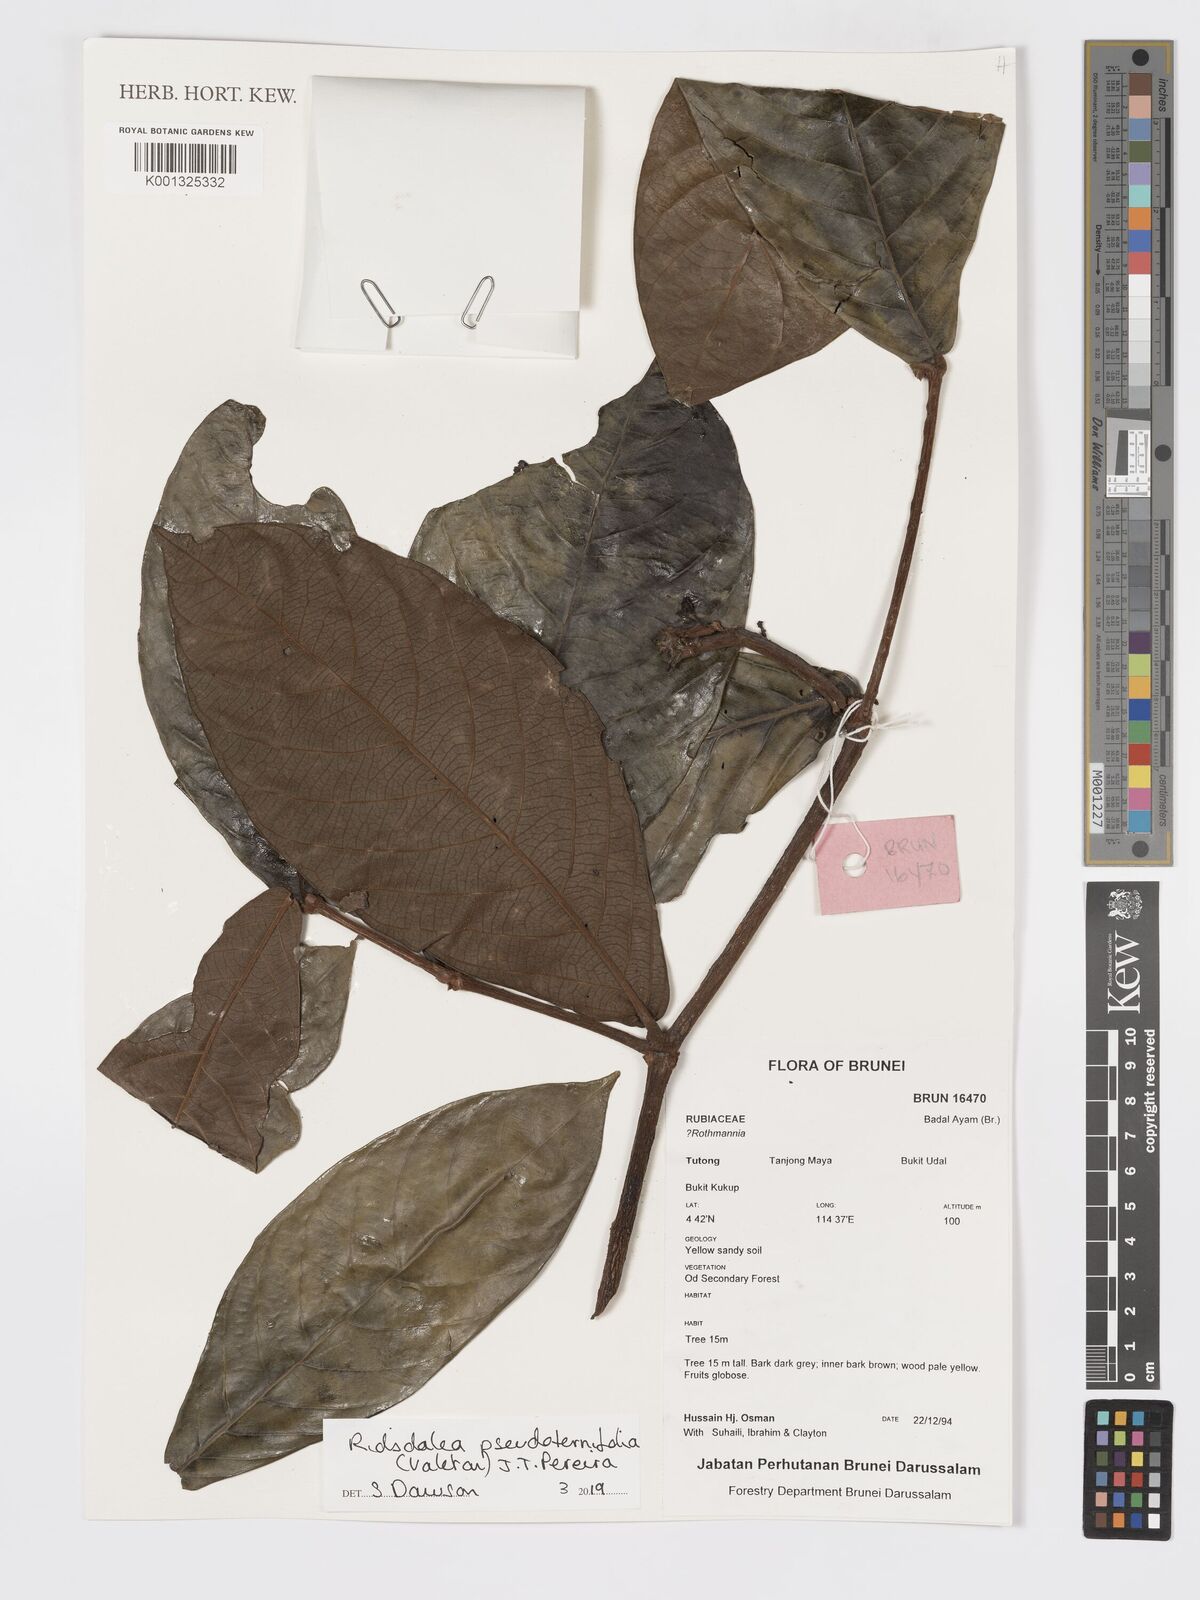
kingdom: Plantae
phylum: Tracheophyta
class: Magnoliopsida
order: Gentianales
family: Rubiaceae
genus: Ridsdalea
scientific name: Ridsdalea pseudoternifolia
